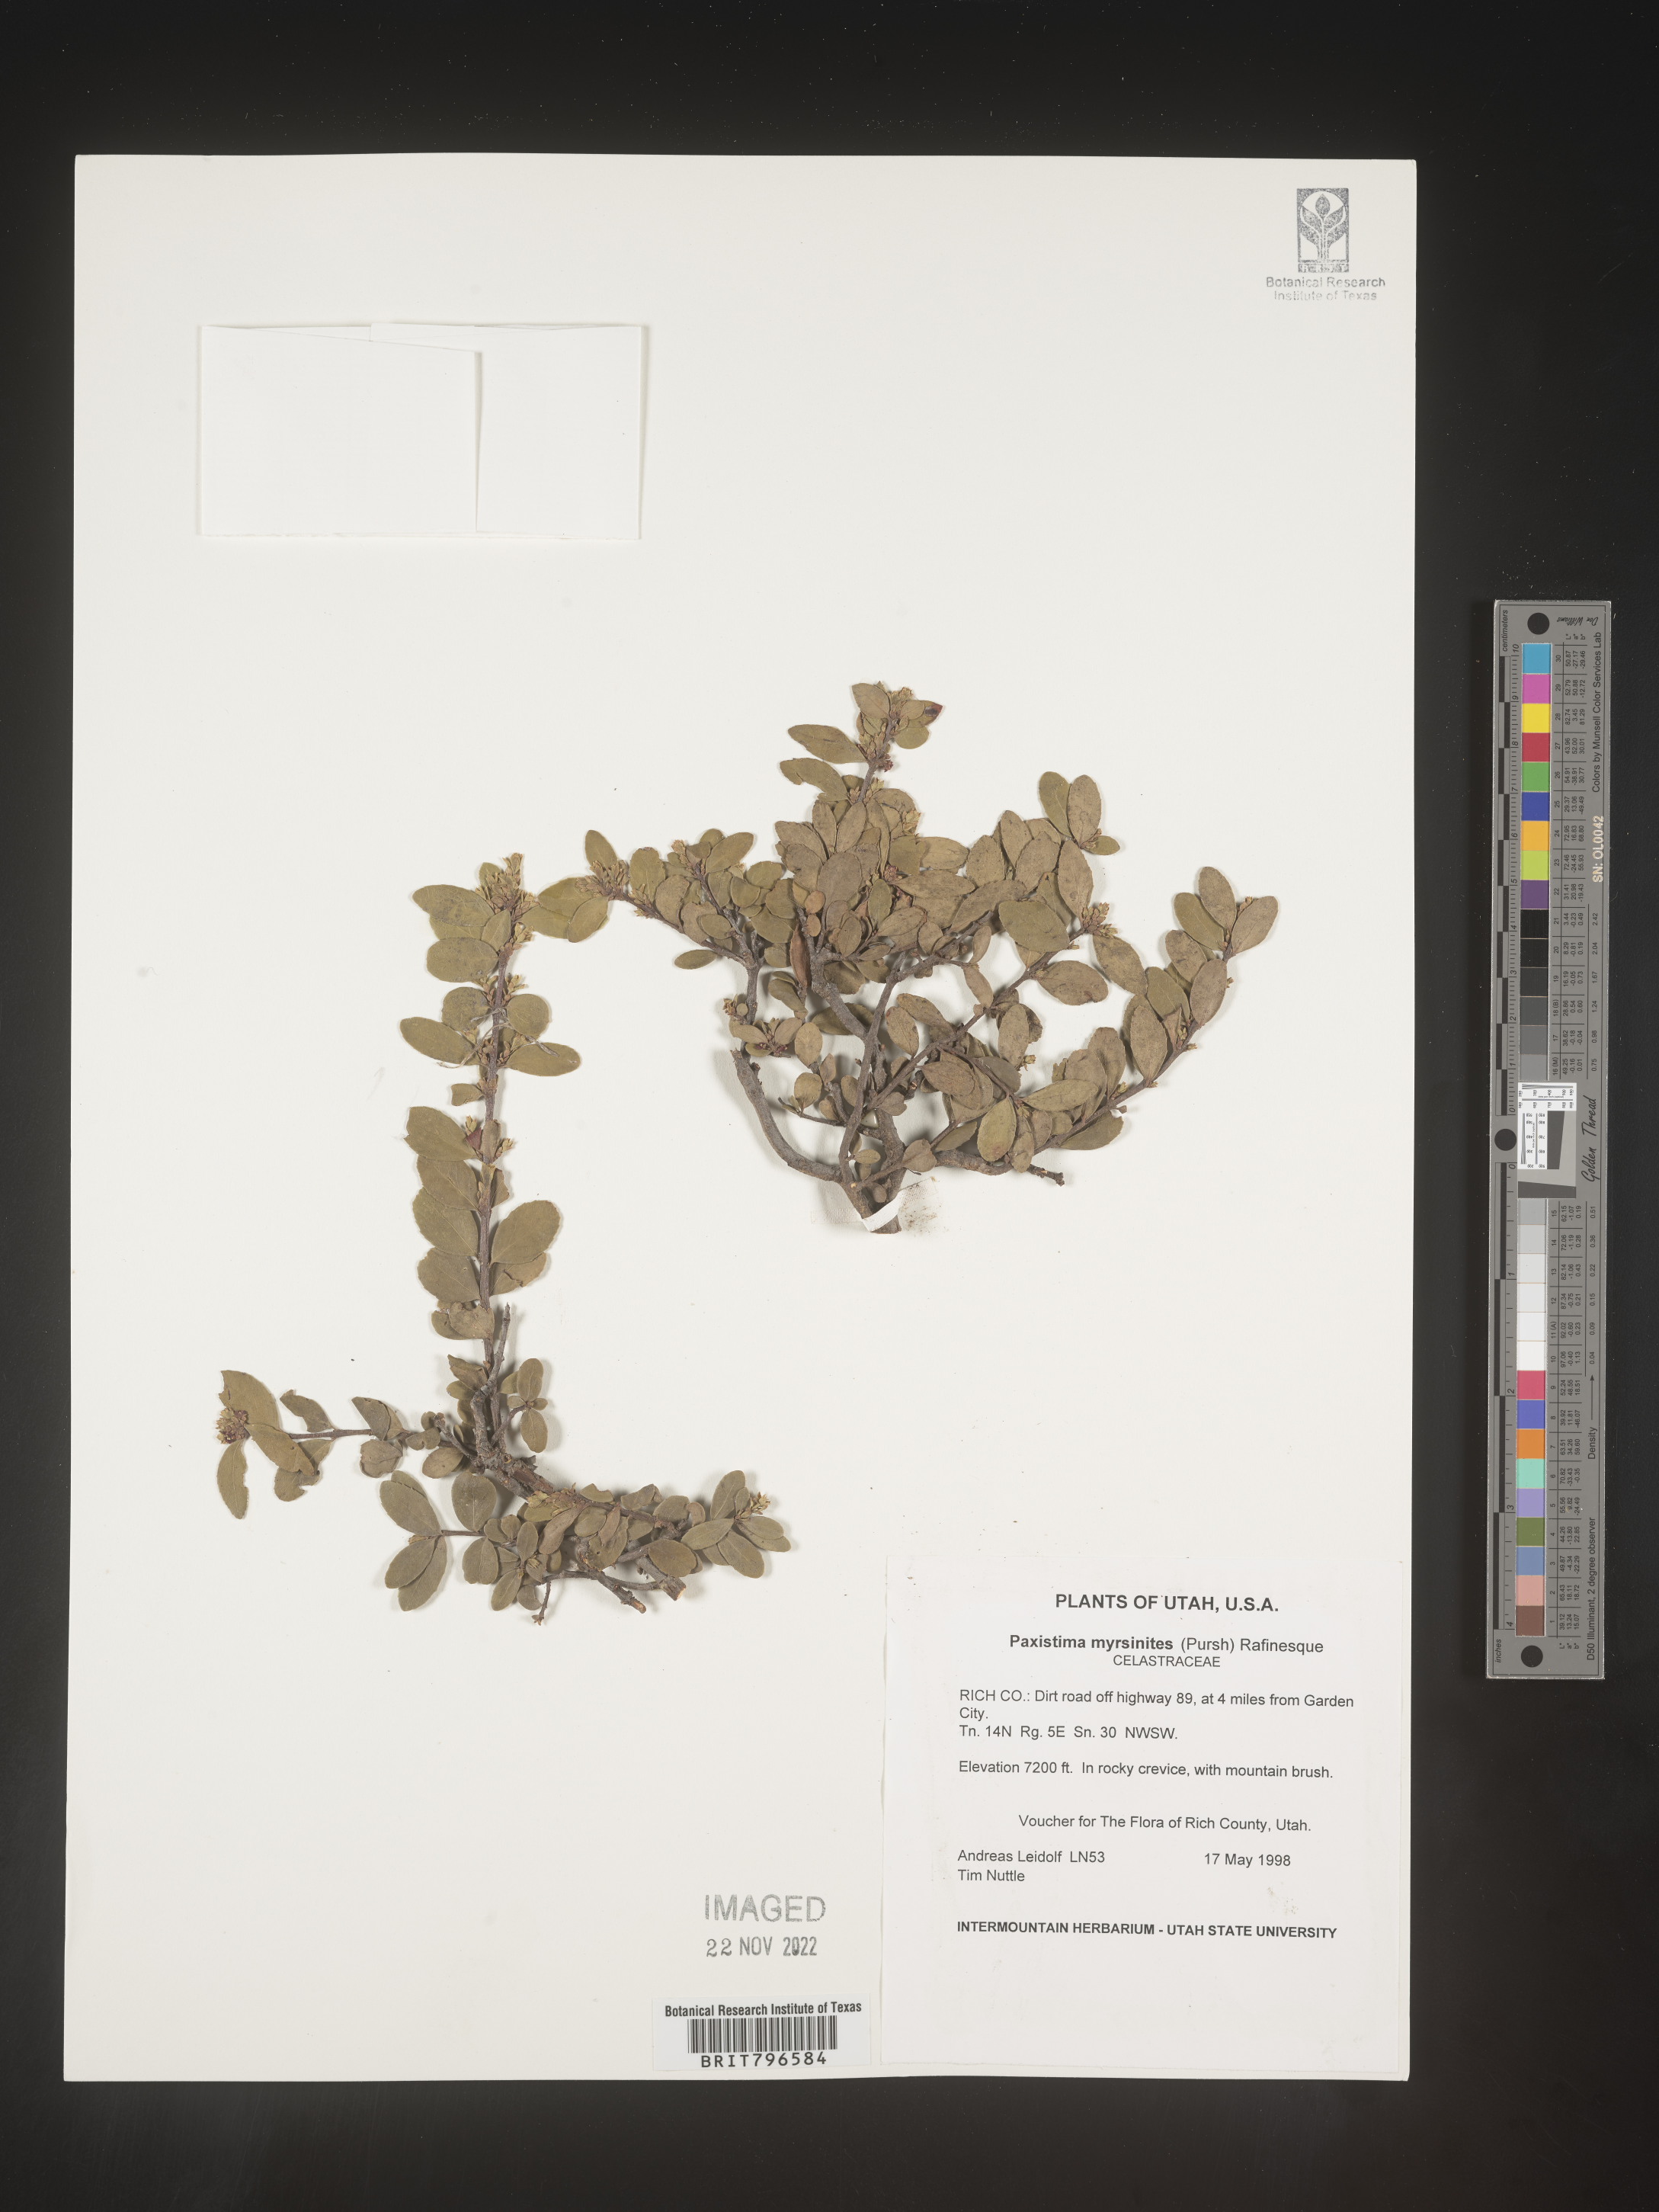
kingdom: Plantae
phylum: Tracheophyta
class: Magnoliopsida
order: Celastrales
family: Celastraceae
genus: Paxistima
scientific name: Paxistima myrsinites
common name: Mountain-lover
